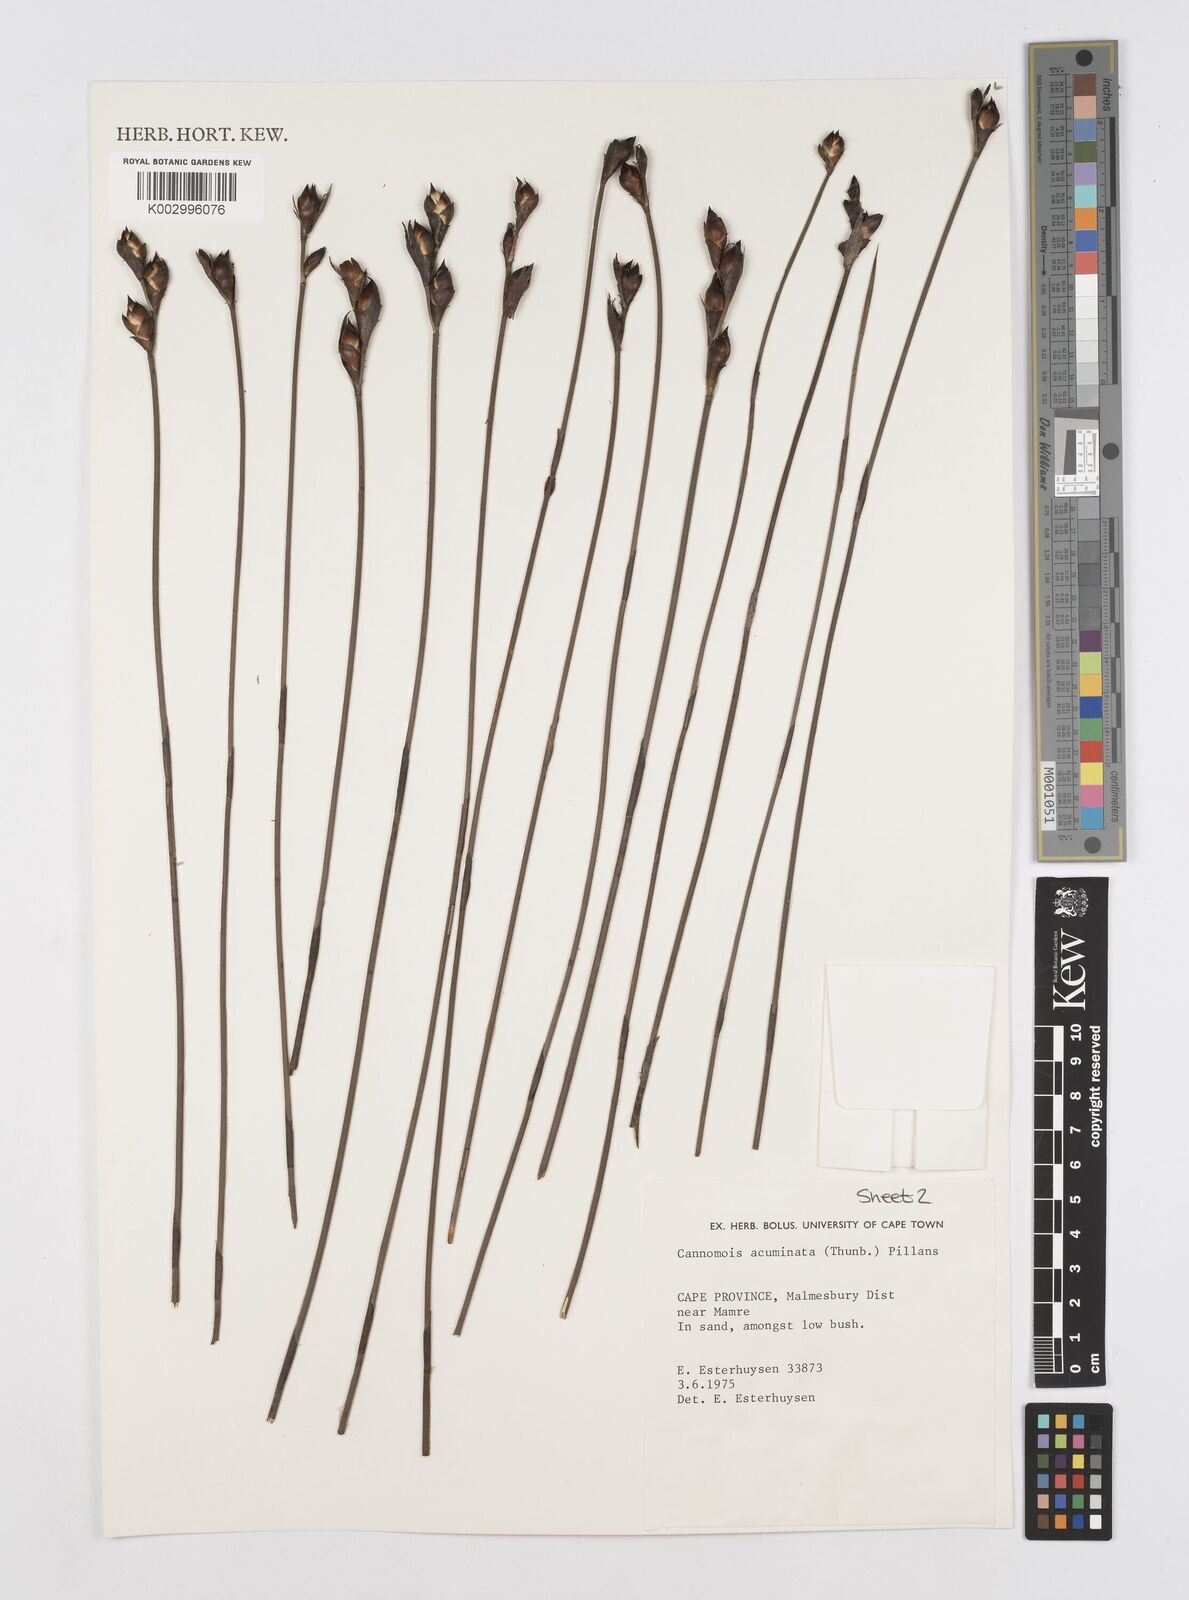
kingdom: Plantae
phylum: Tracheophyta
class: Liliopsida
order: Poales
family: Restionaceae
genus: Cannomois
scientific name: Cannomois parviflora
